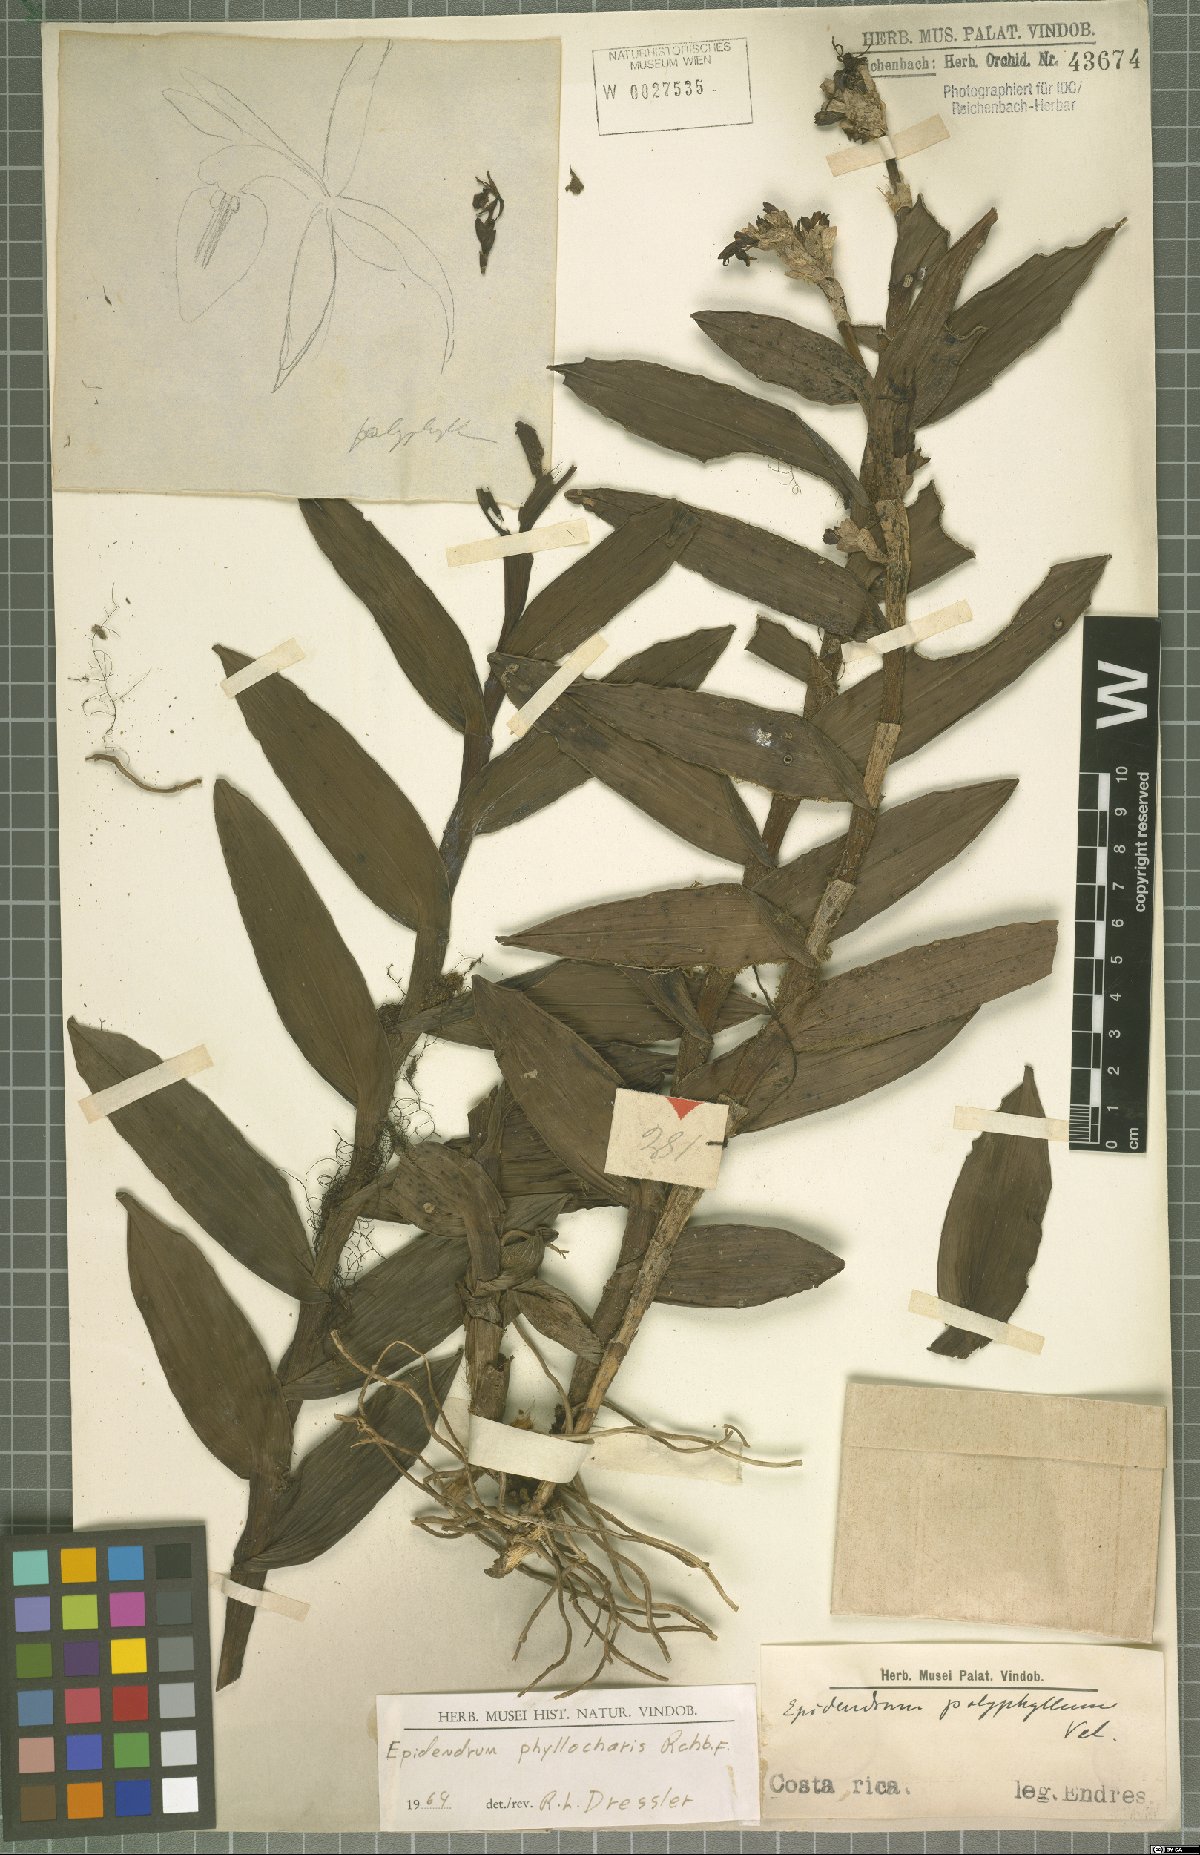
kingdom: Plantae
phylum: Tracheophyta
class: Liliopsida
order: Asparagales
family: Orchidaceae
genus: Epidendrum
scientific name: Epidendrum phyllocharis
